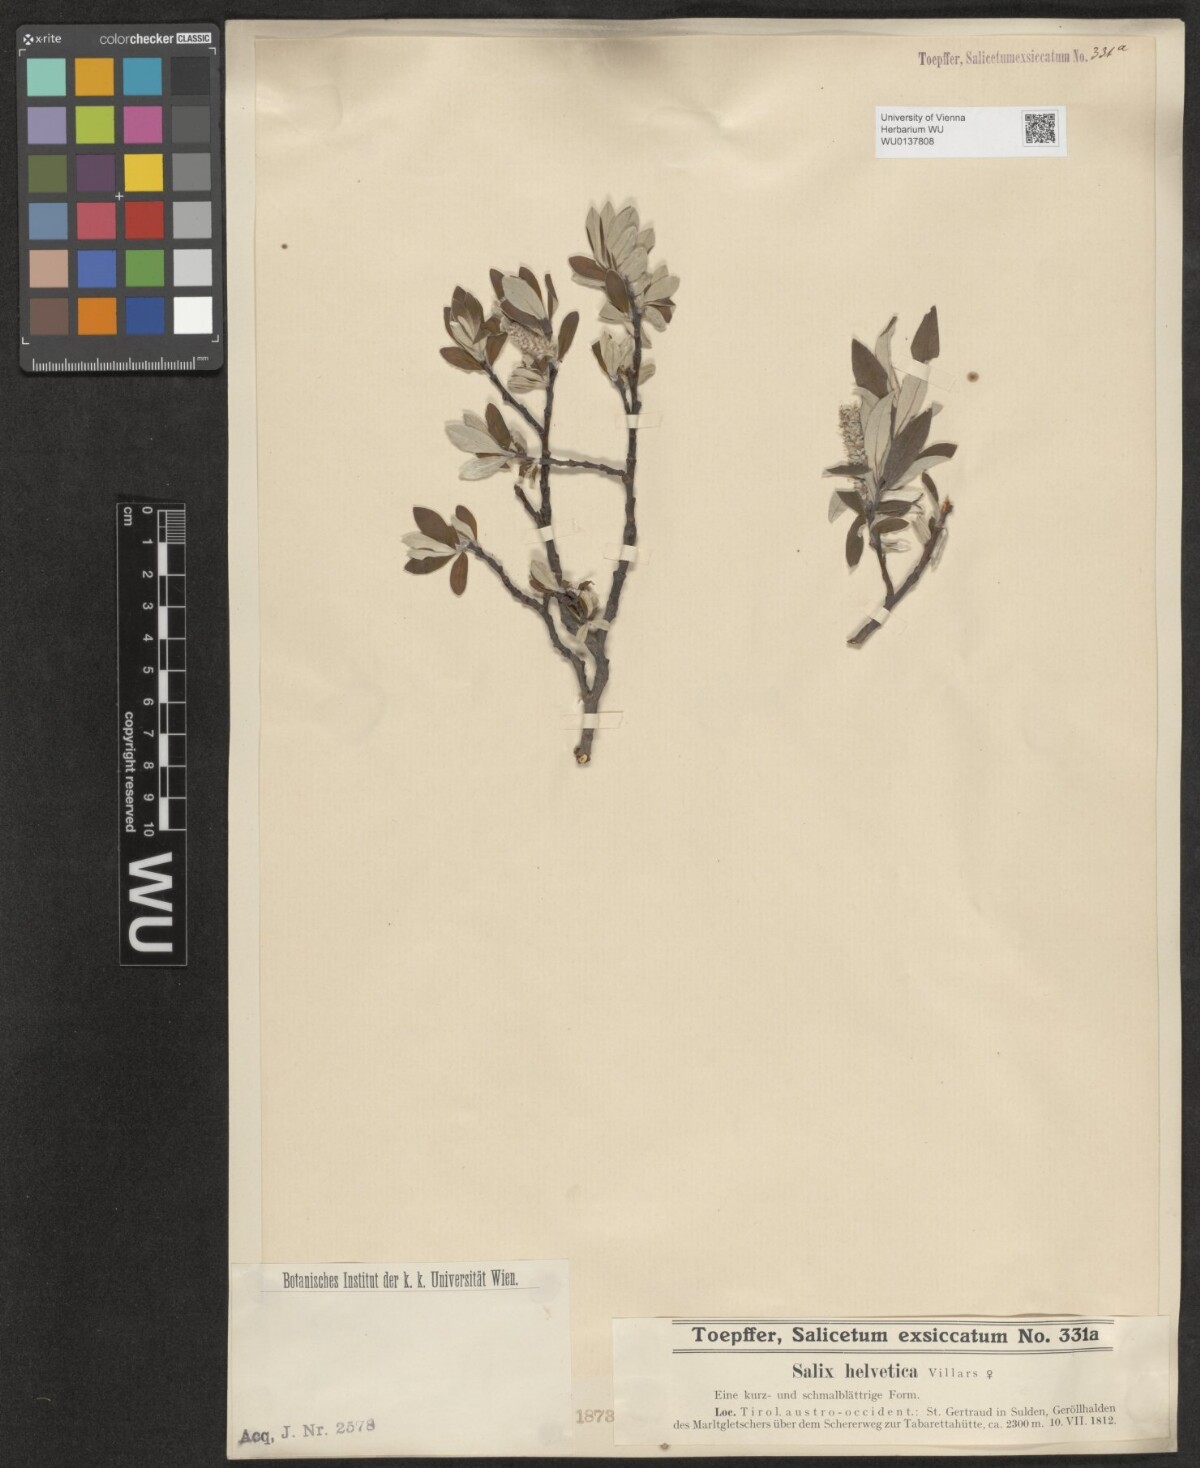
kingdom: Plantae
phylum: Tracheophyta
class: Magnoliopsida
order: Malpighiales
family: Salicaceae
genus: Salix
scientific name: Salix helvetica
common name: Swiss willow
